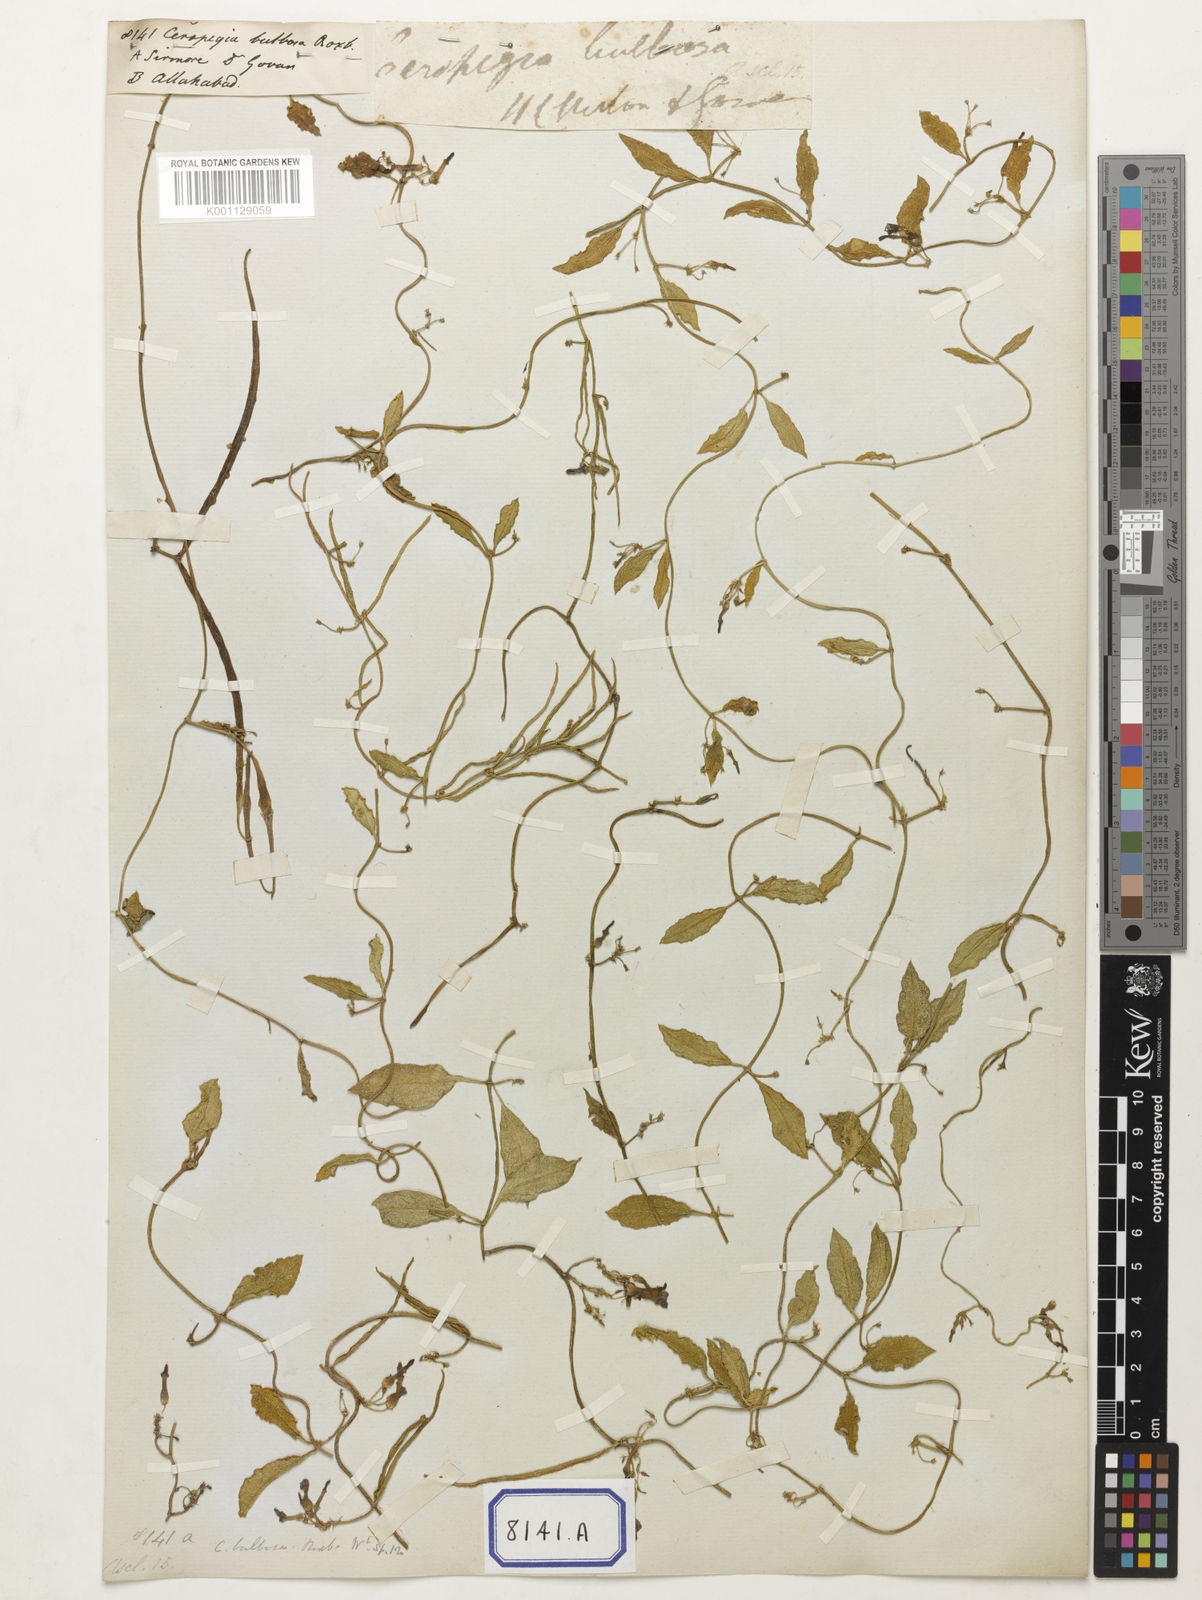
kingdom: Plantae
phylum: Tracheophyta
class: Magnoliopsida
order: Gentianales
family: Apocynaceae
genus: Ceropegia
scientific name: Ceropegia bulbosa
